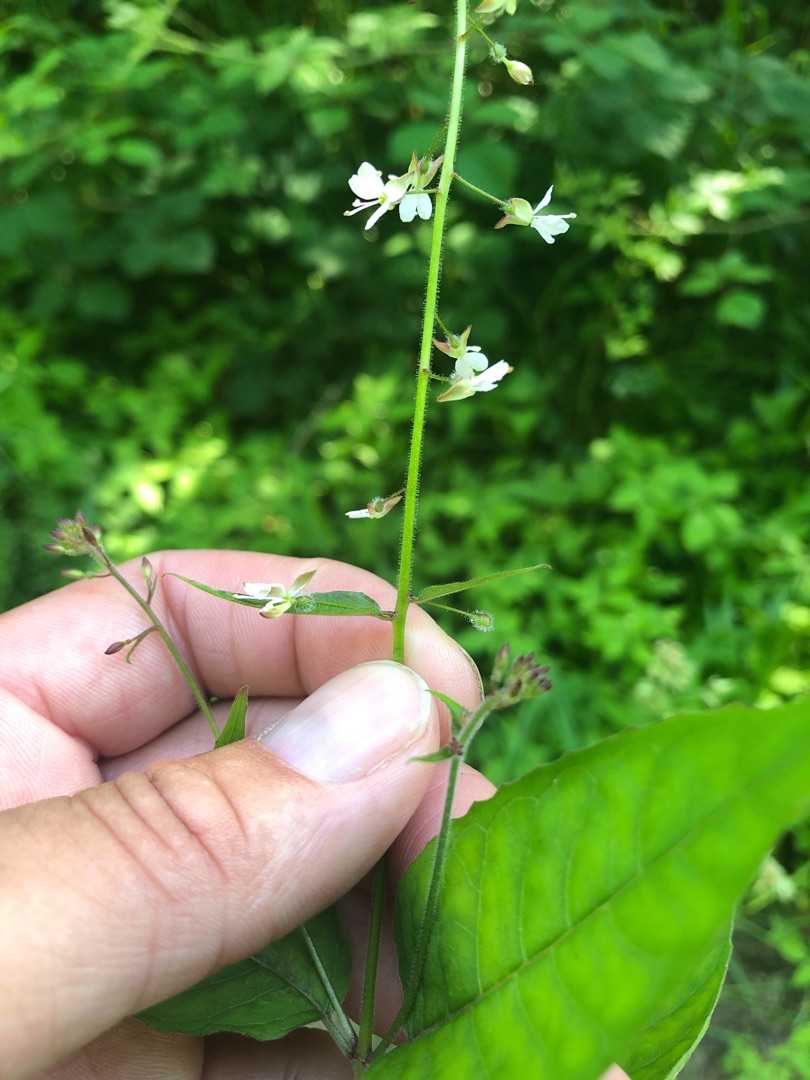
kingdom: Plantae
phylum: Tracheophyta
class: Magnoliopsida
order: Myrtales
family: Onagraceae
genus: Circaea
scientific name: Circaea lutetiana
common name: Dunet steffensurt
